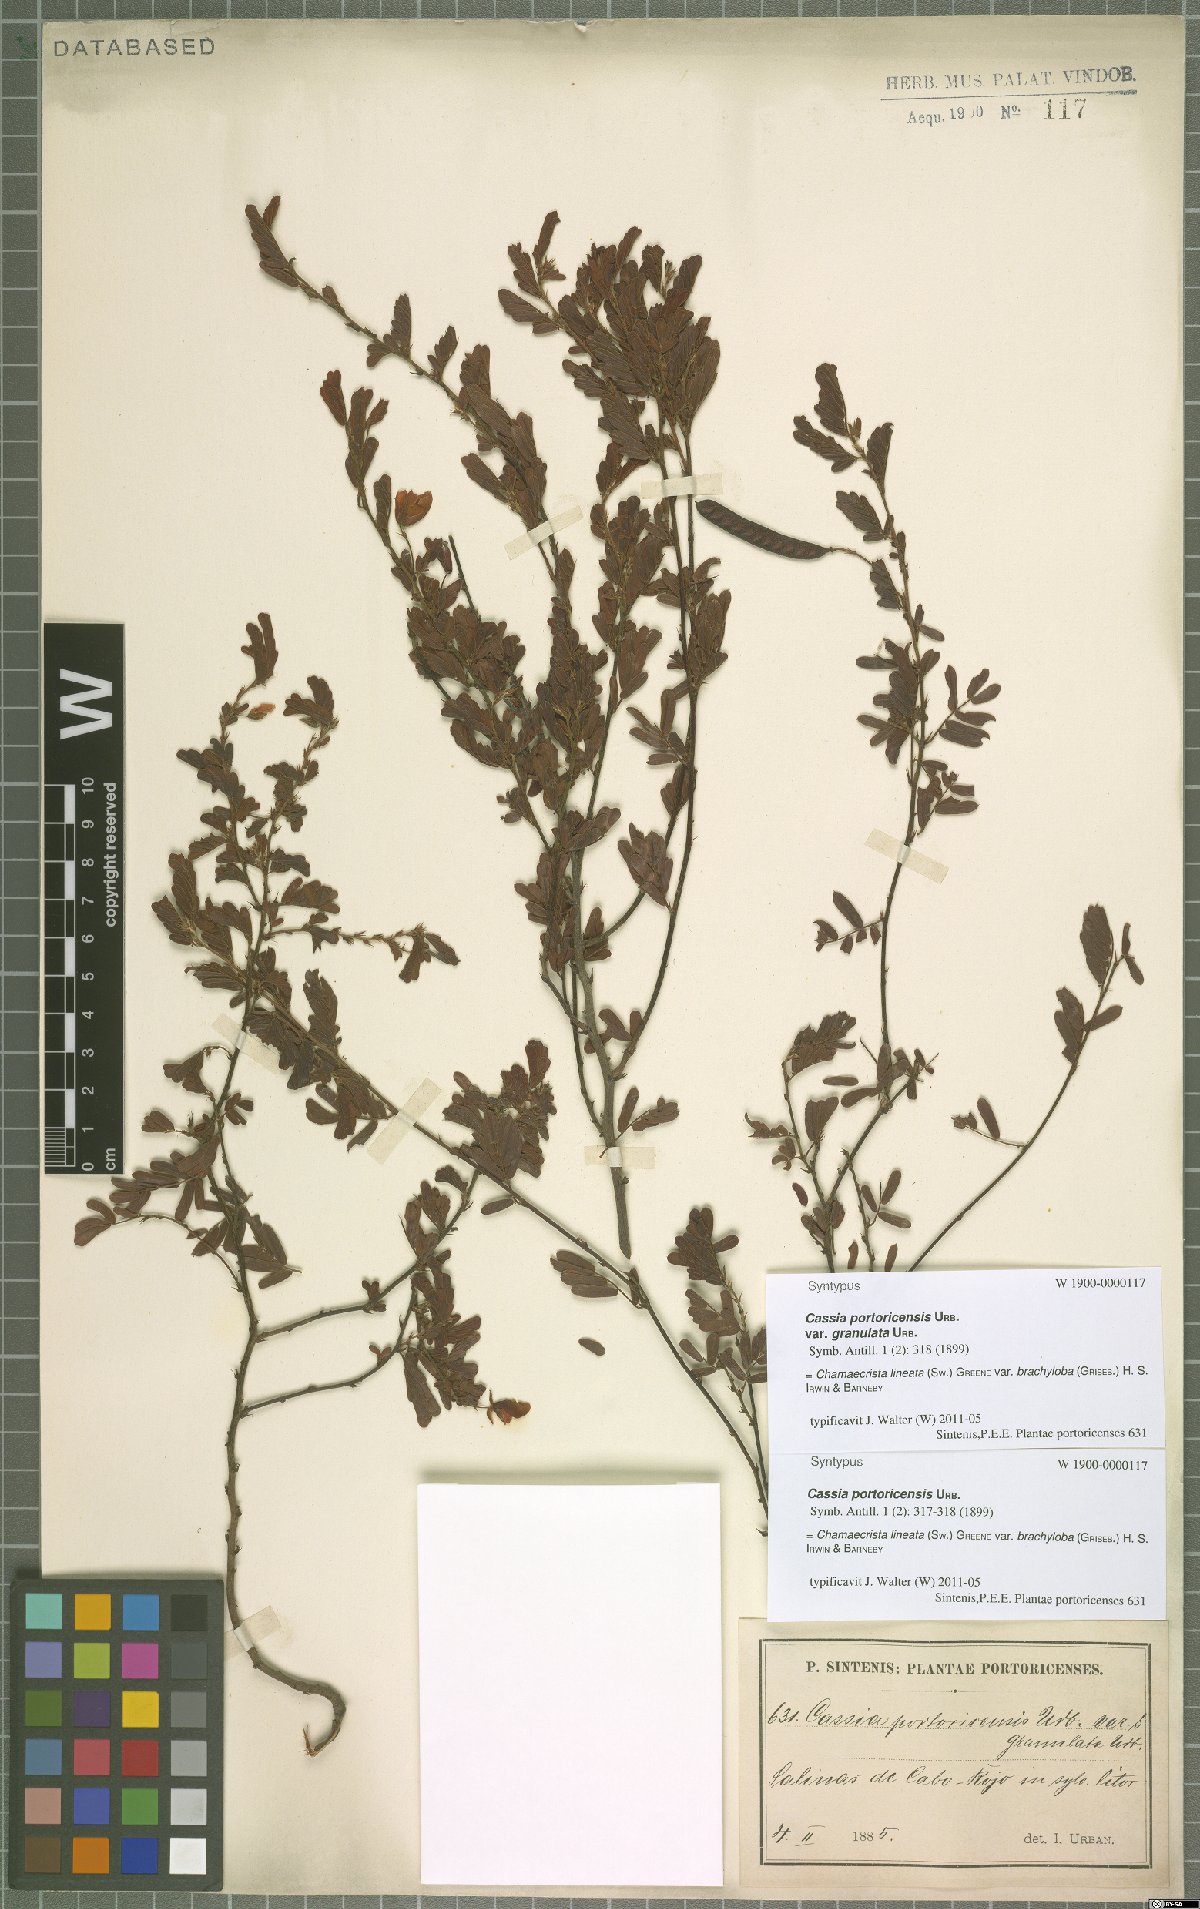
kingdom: Plantae
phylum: Tracheophyta
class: Magnoliopsida
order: Fabales
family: Fabaceae
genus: Chamaecrista
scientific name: Chamaecrista lineata
